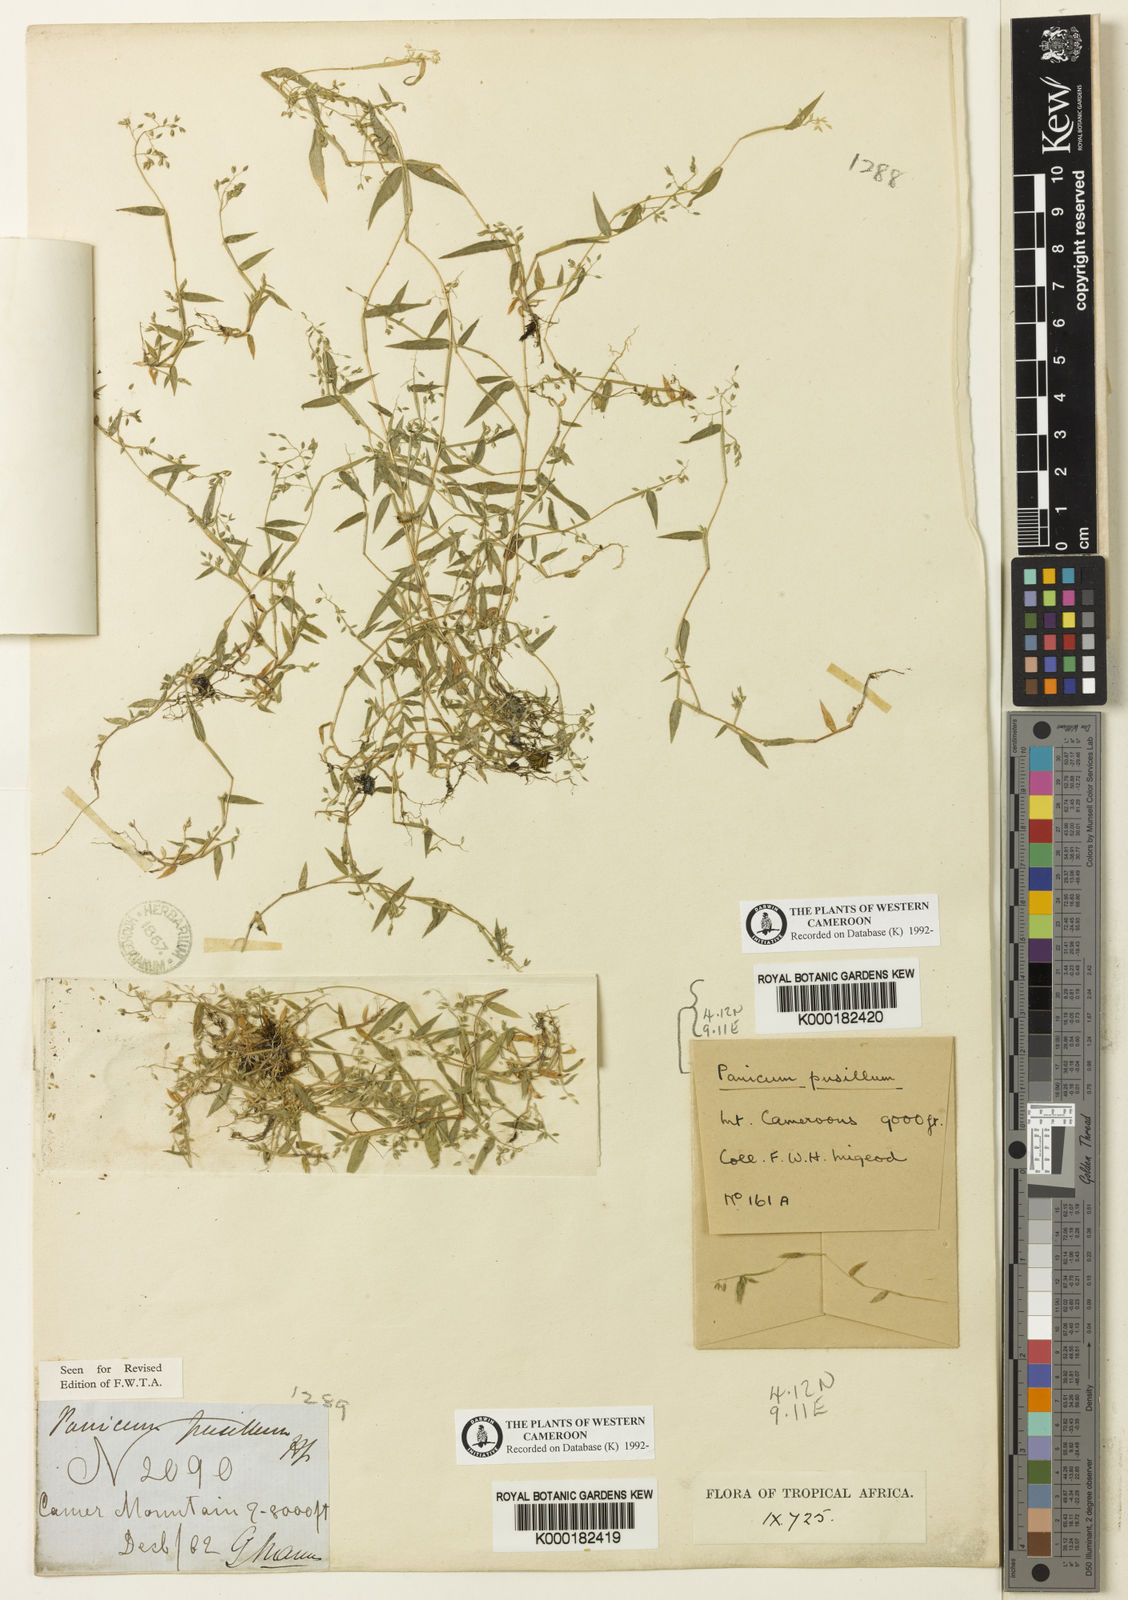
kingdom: Plantae
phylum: Tracheophyta
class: Liliopsida
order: Poales
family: Poaceae
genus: Panicum
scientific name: Panicum pusillum
